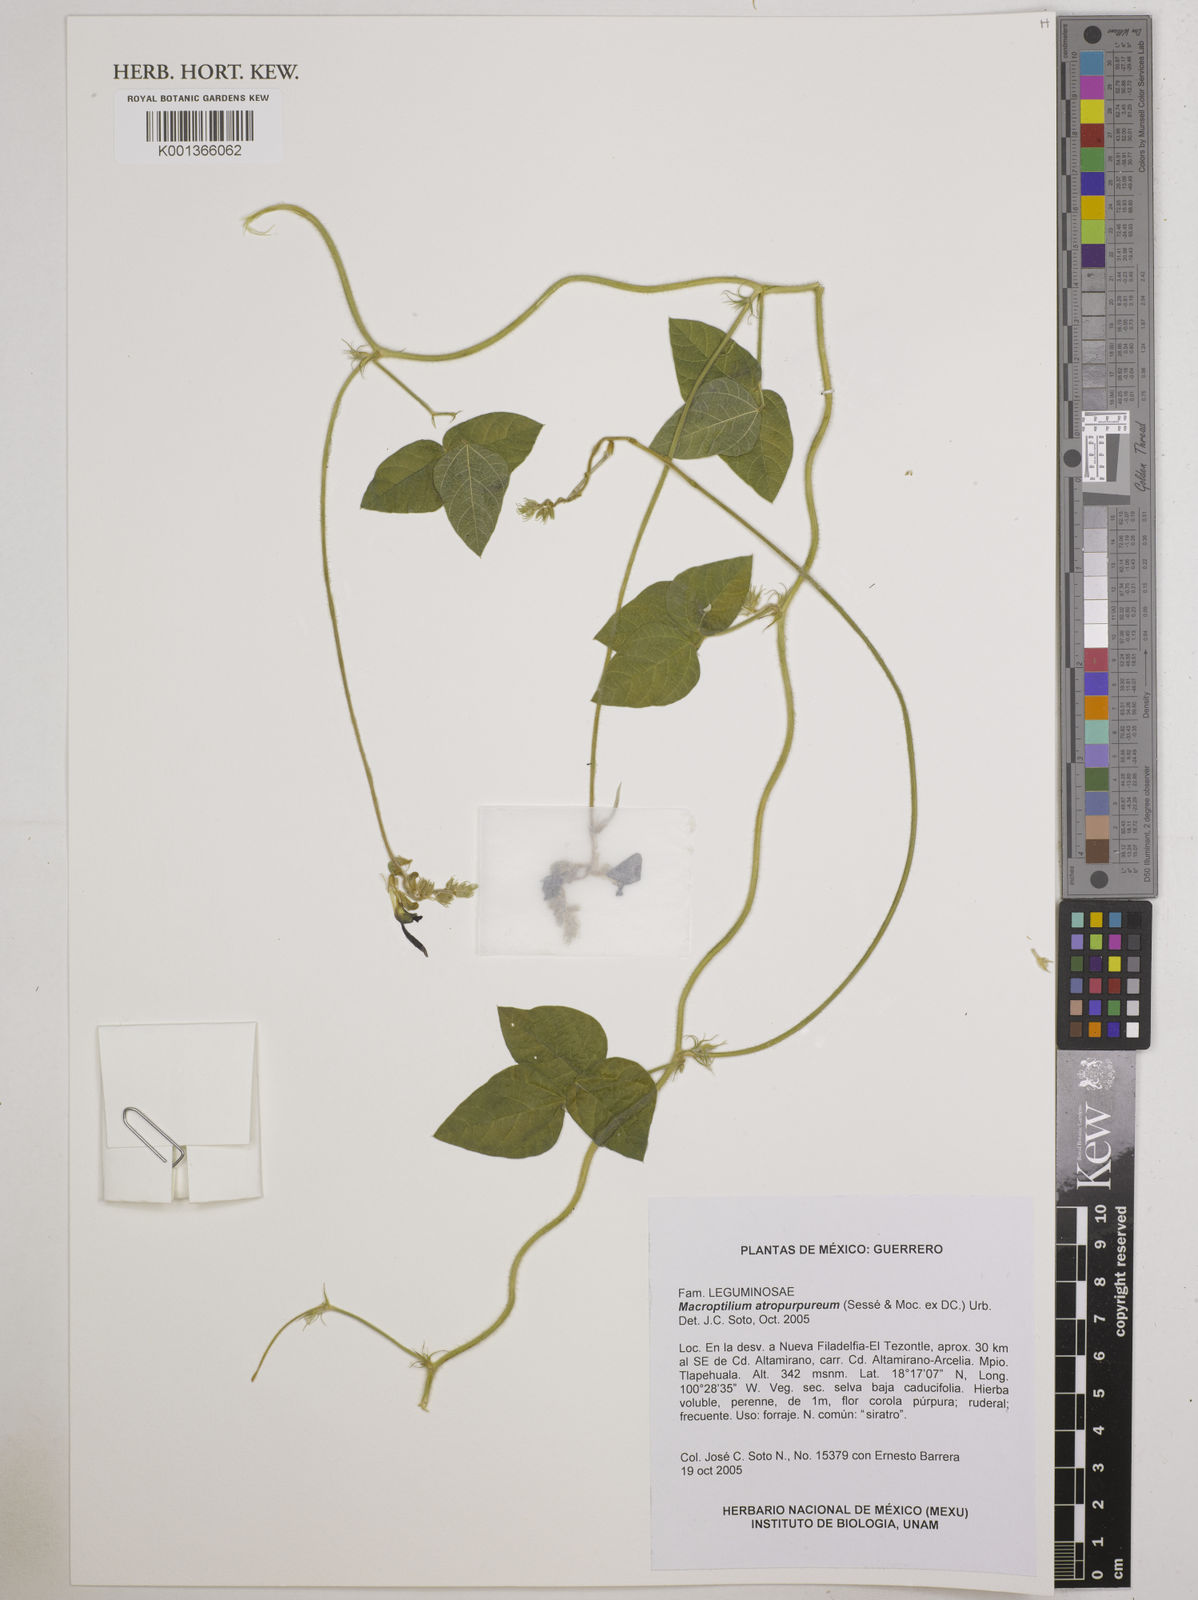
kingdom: Plantae
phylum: Tracheophyta
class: Magnoliopsida
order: Fabales
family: Fabaceae
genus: Macroptilium
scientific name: Macroptilium atropurpureum
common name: Purple bushbean
